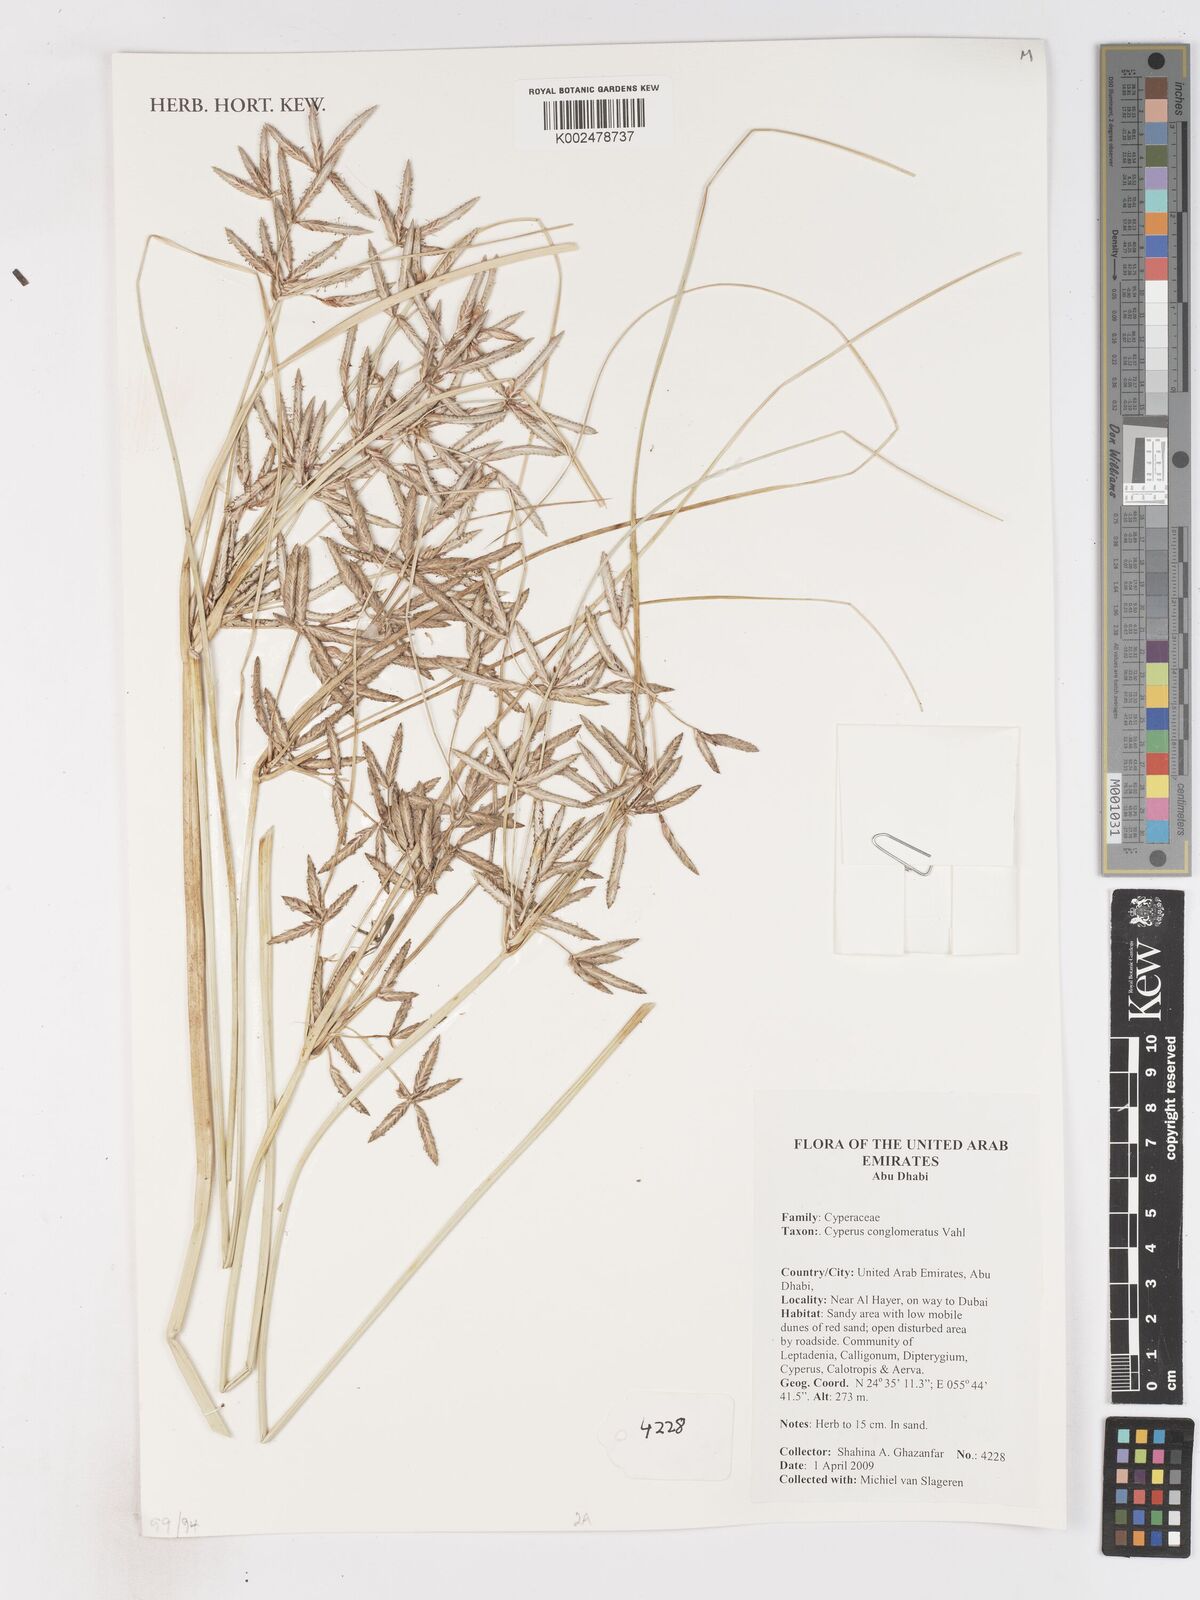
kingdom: Plantae
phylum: Tracheophyta
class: Liliopsida
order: Poales
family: Cyperaceae
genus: Cyperus
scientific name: Cyperus conglomeratus
